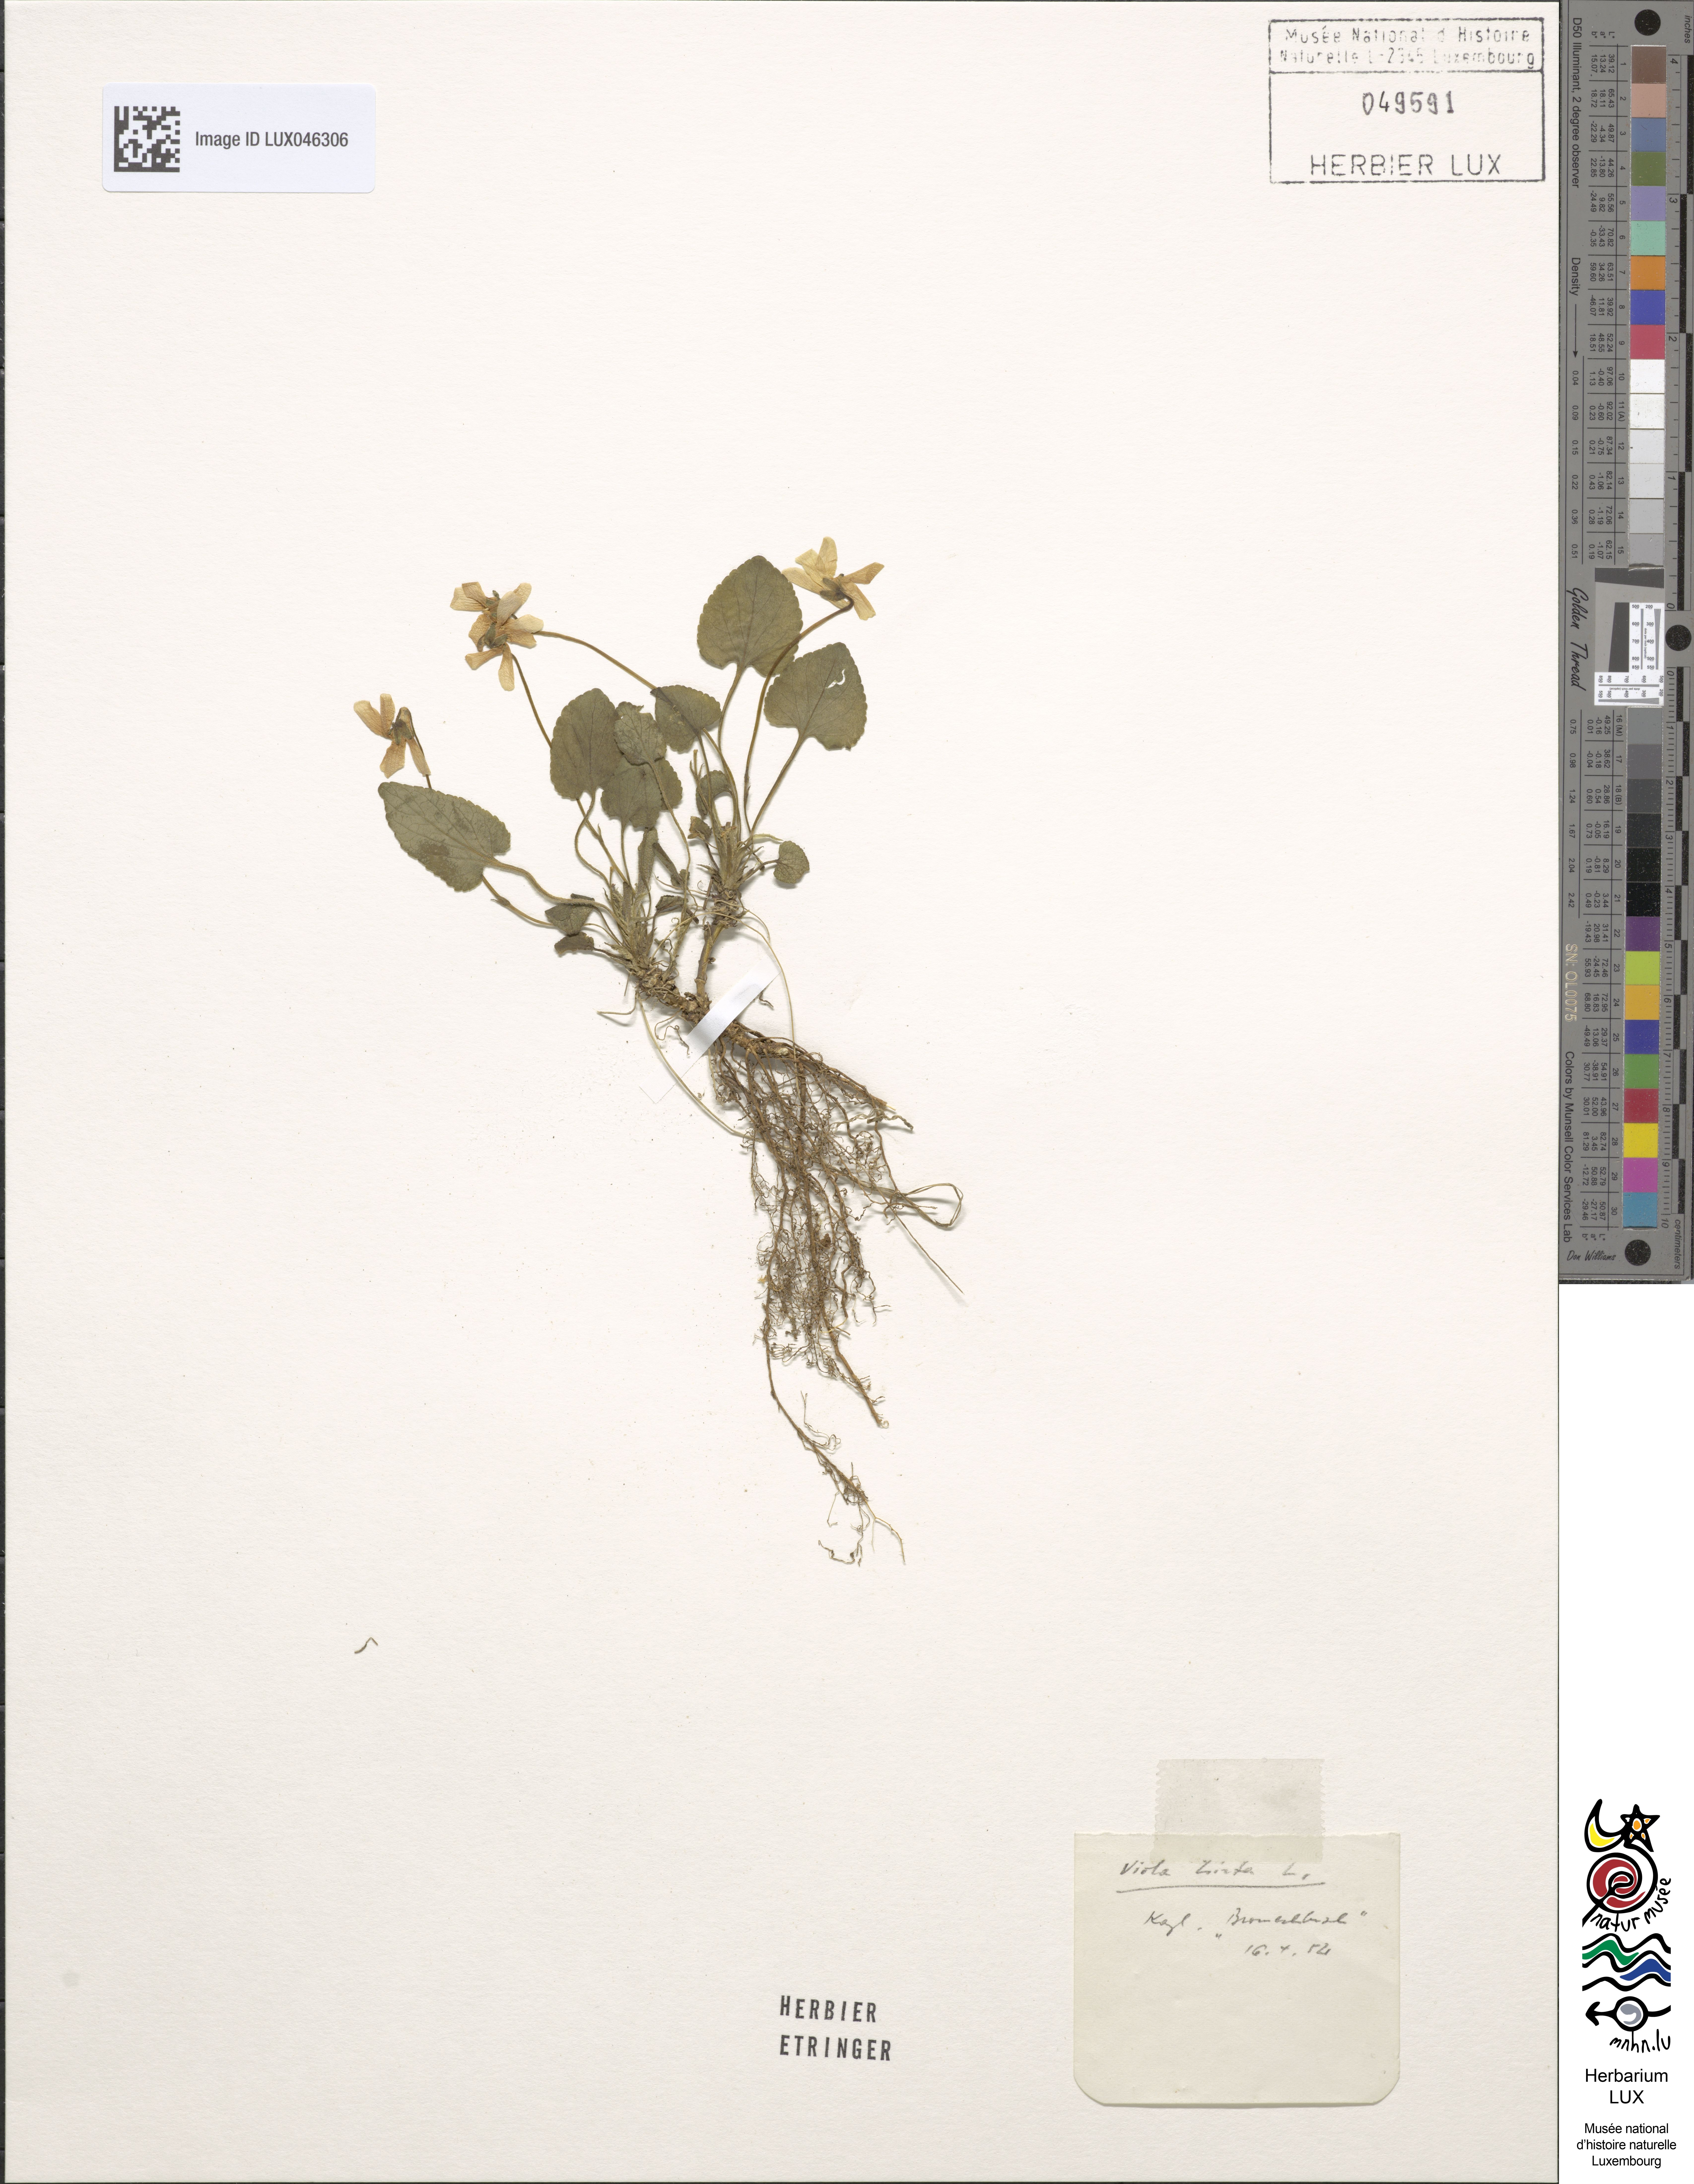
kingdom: Plantae
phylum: Tracheophyta
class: Magnoliopsida
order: Malpighiales
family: Violaceae
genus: Viola
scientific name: Viola hirta
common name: Hairy violet
